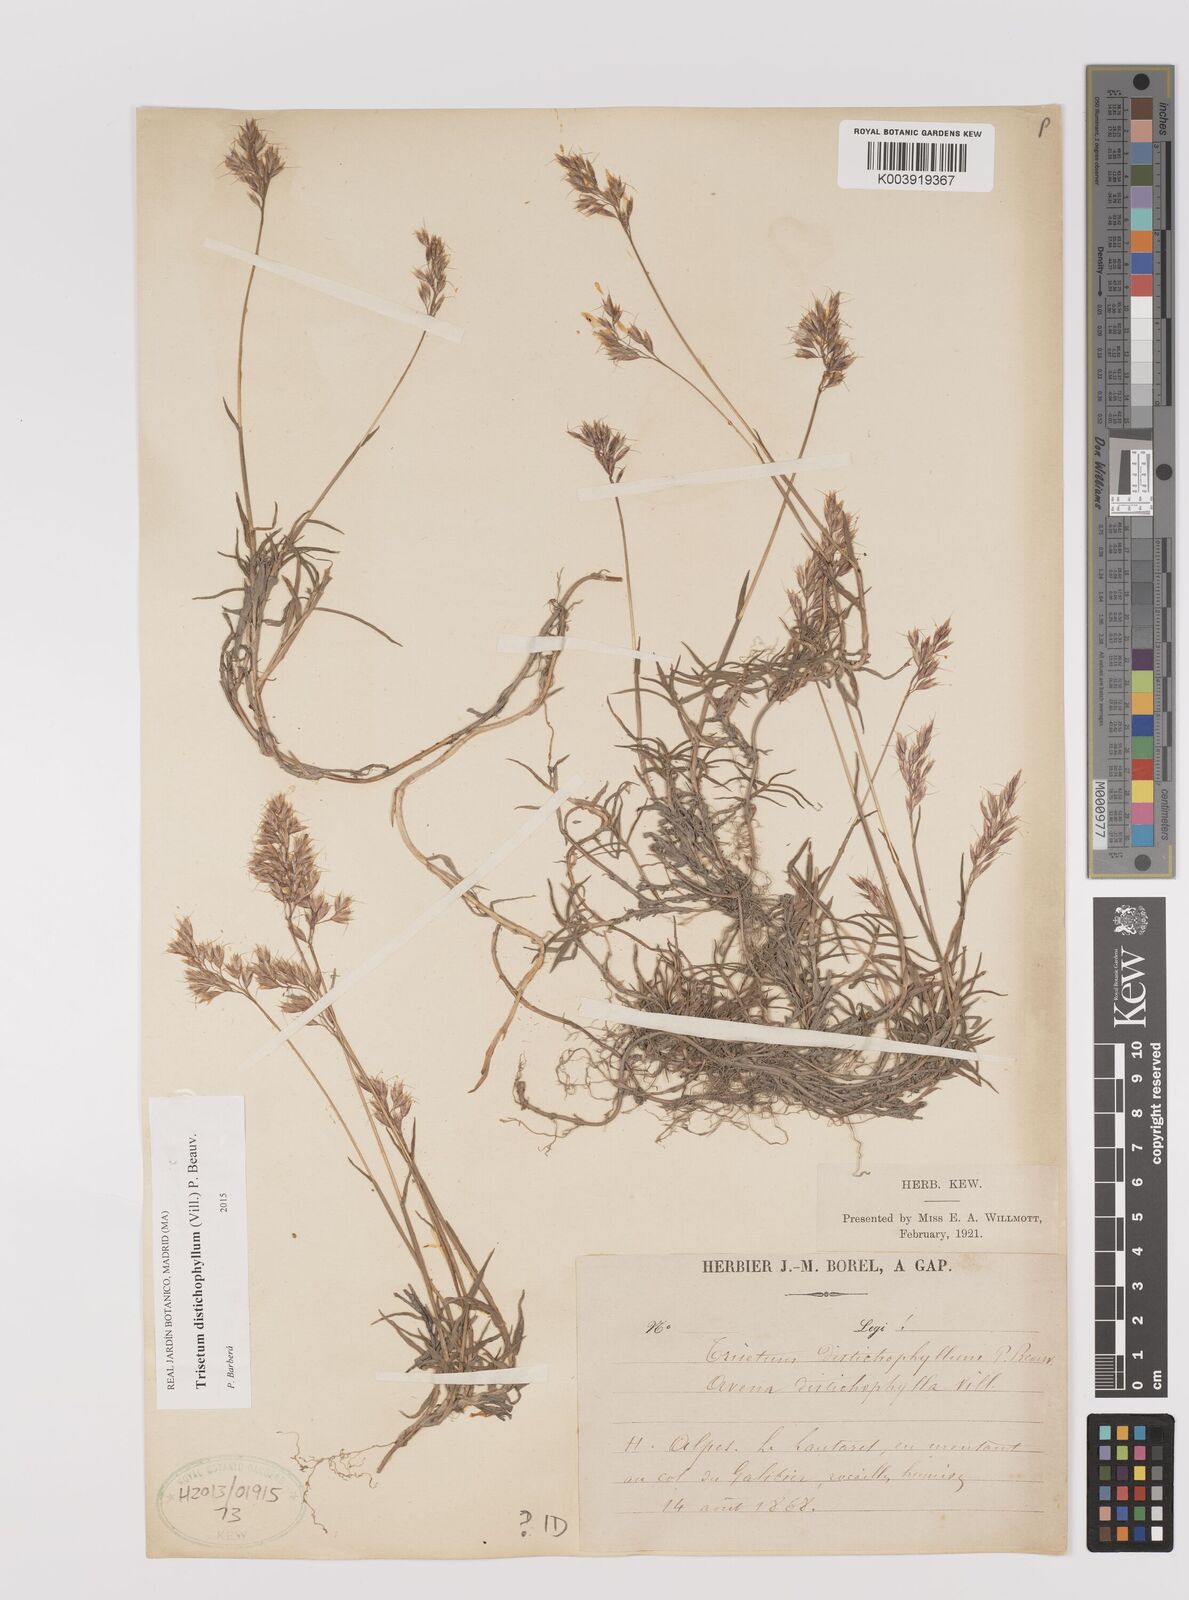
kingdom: Plantae
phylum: Tracheophyta
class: Liliopsida
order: Poales
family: Poaceae
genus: Acrospelion
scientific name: Acrospelion distichophyllum
